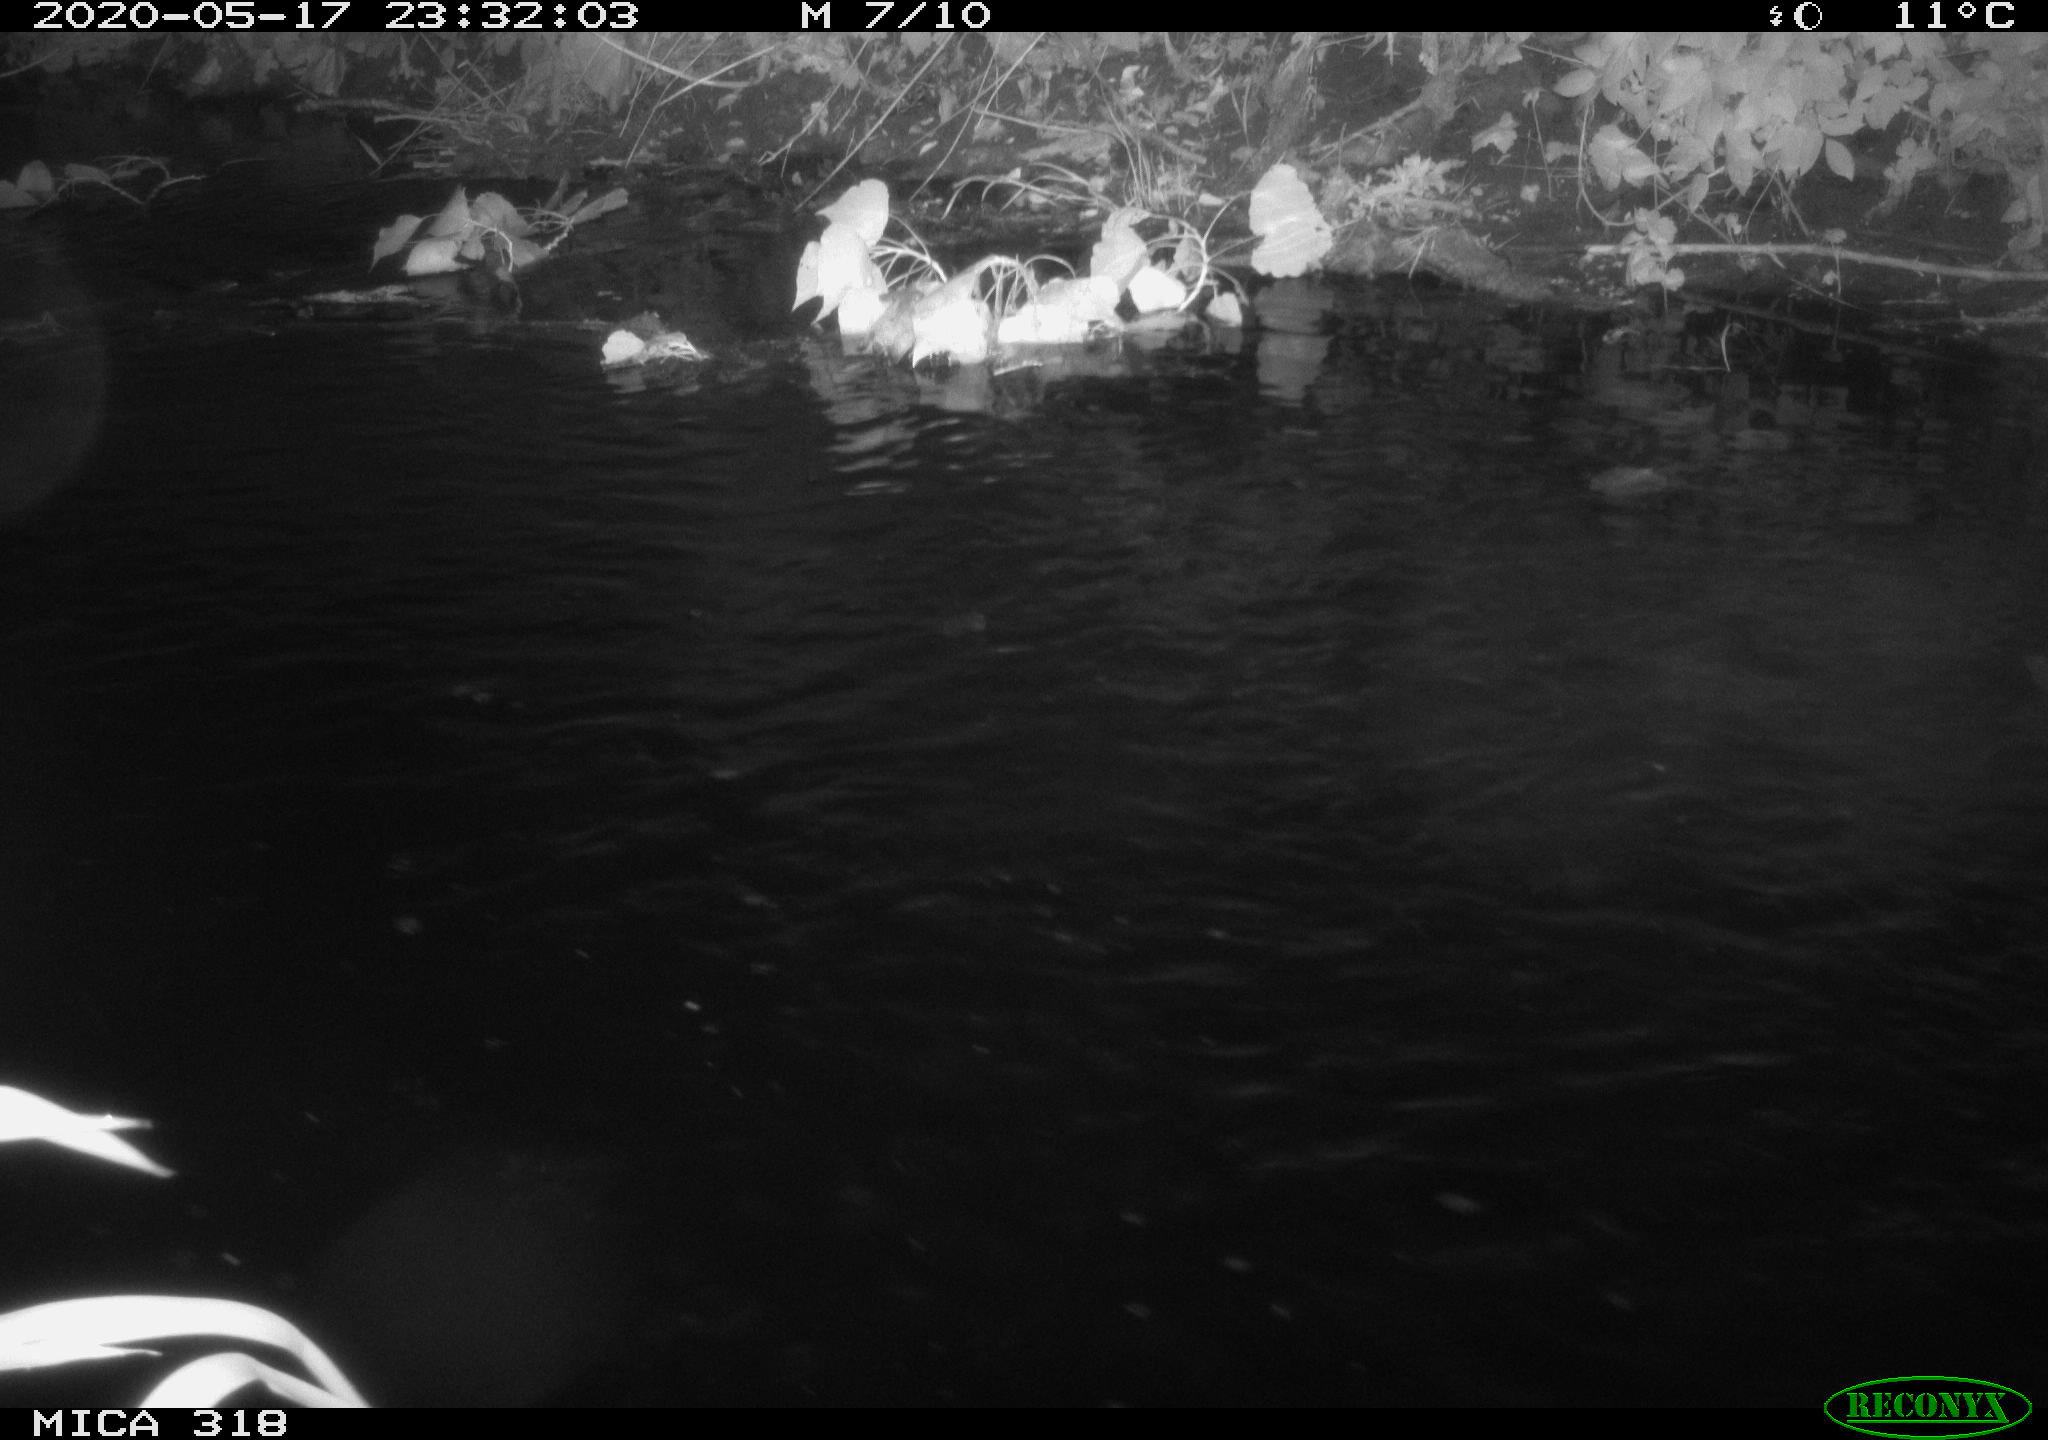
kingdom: Animalia
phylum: Chordata
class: Aves
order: Pelecaniformes
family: Ardeidae
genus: Ardea
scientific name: Ardea cinerea
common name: Grey heron
